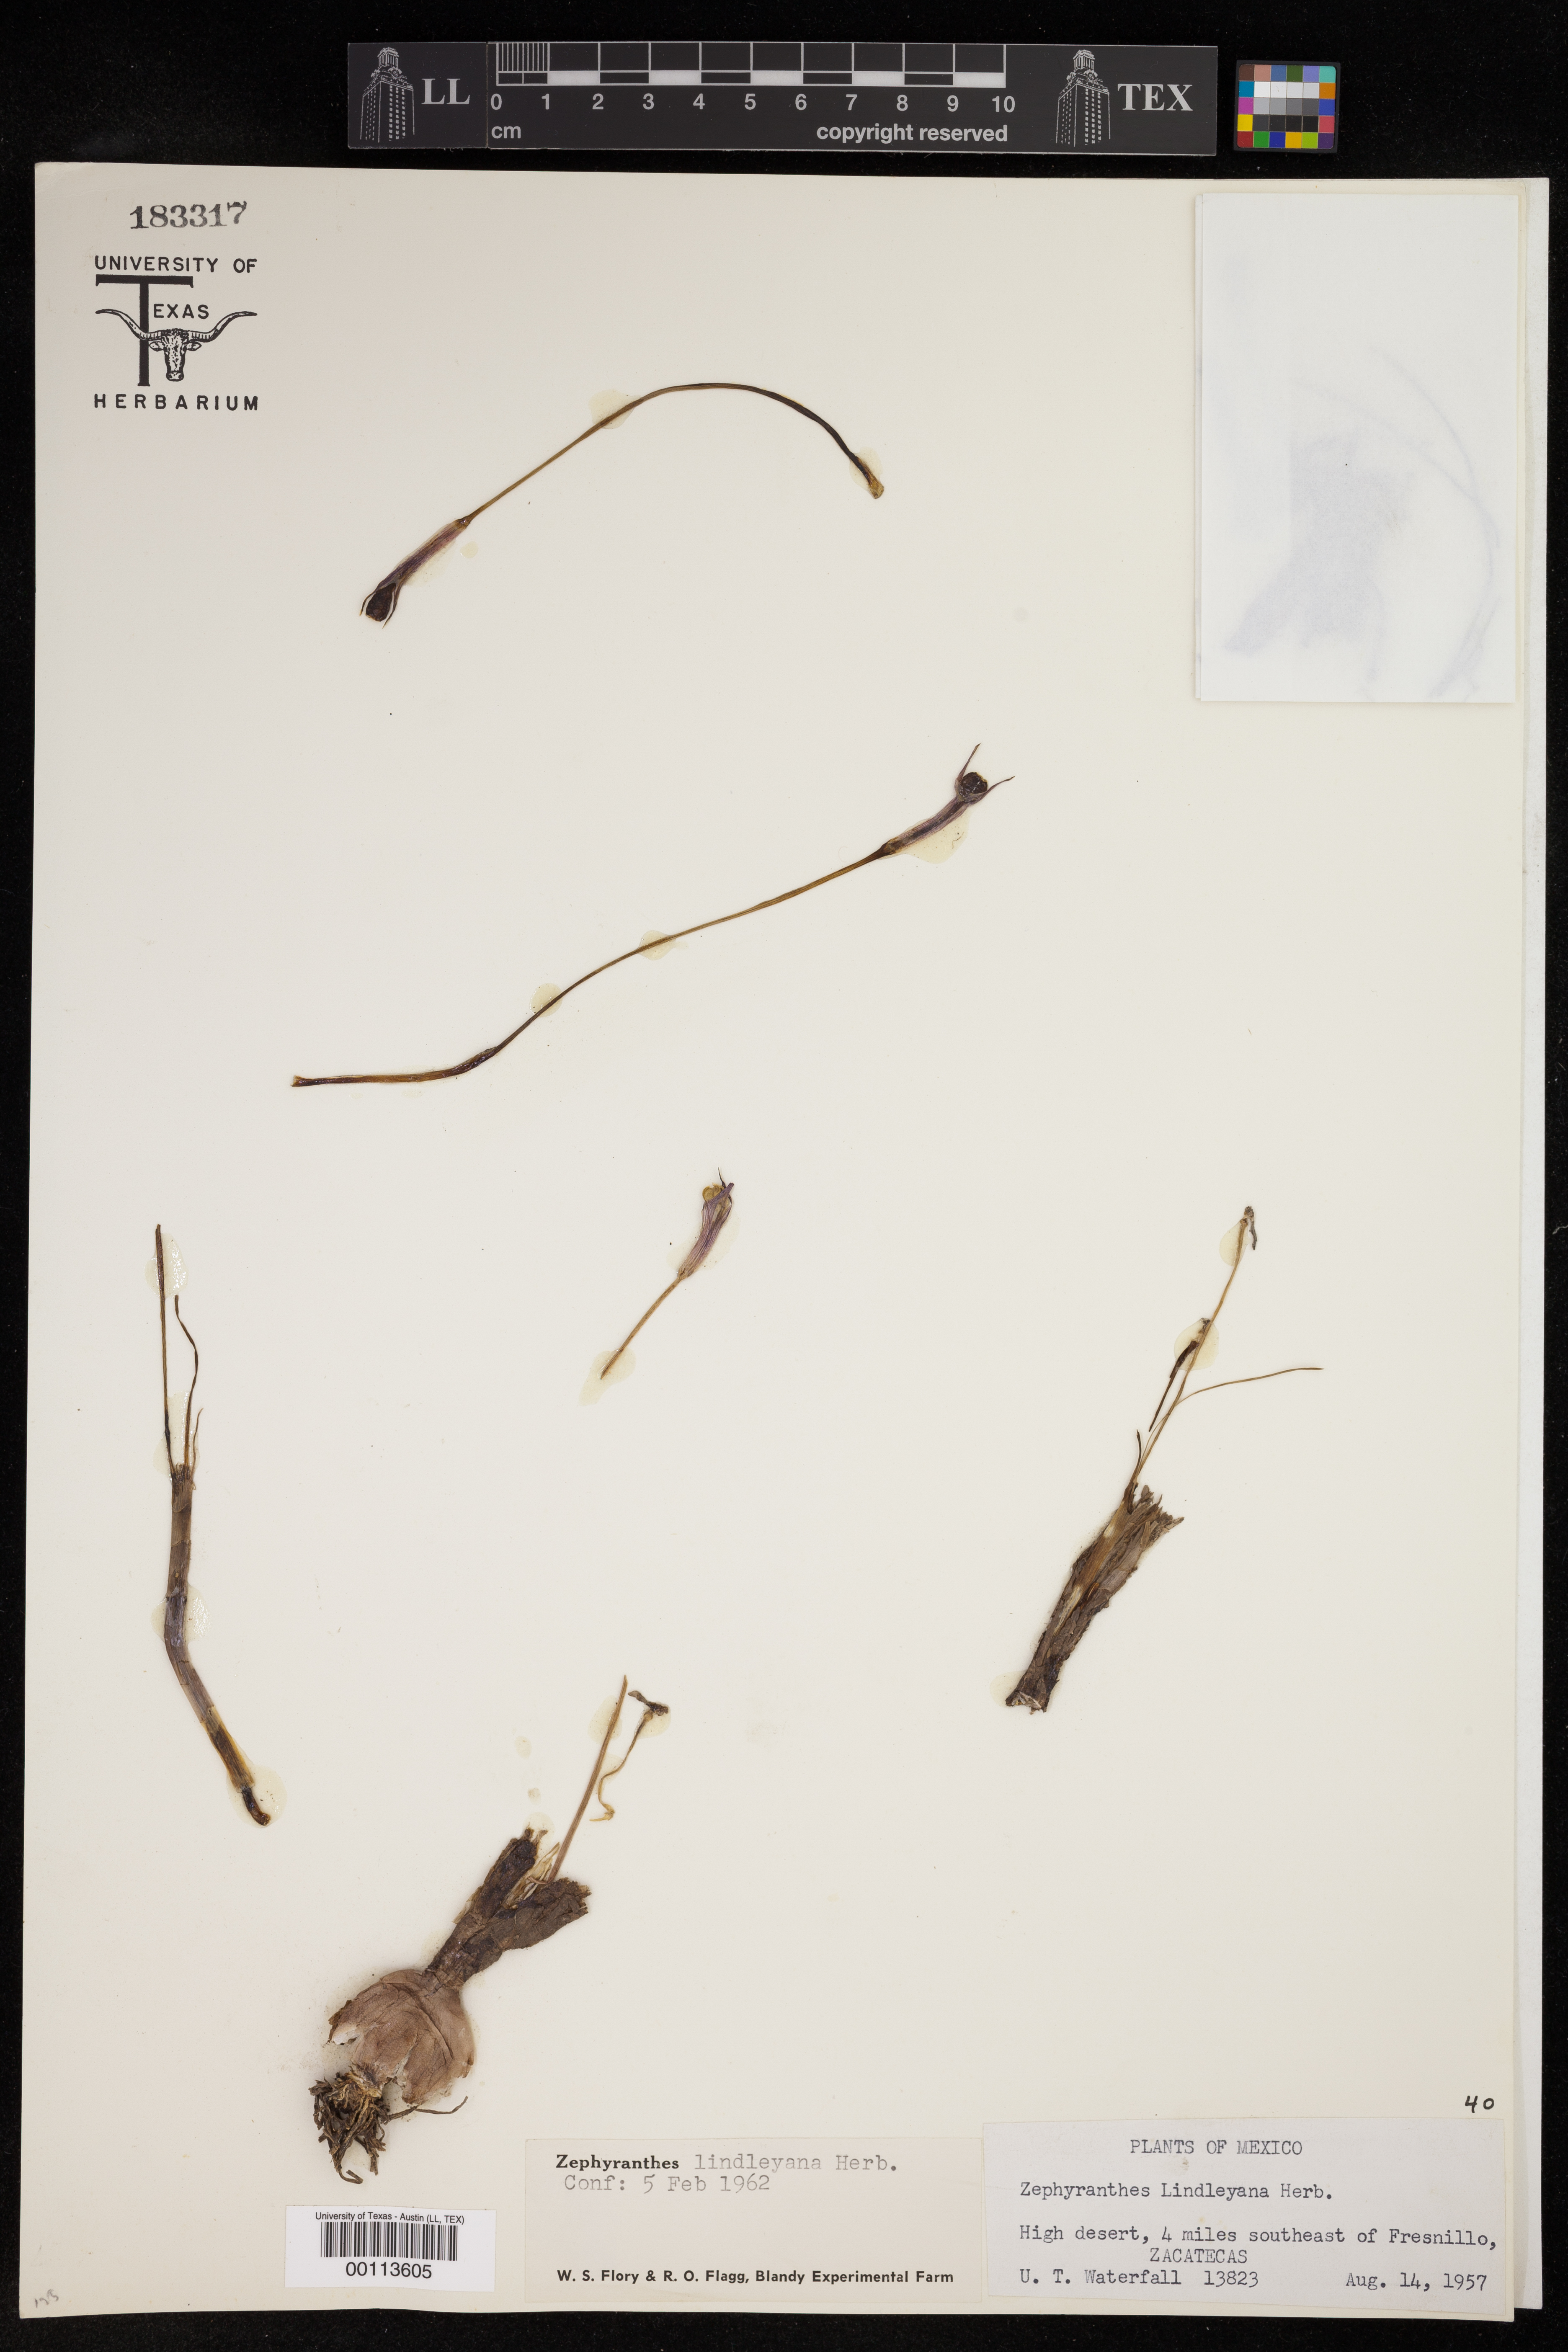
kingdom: Plantae
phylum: Tracheophyta
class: Liliopsida
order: Asparagales
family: Amaryllidaceae
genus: Zephyranthes
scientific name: Zephyranthes lindleyana
